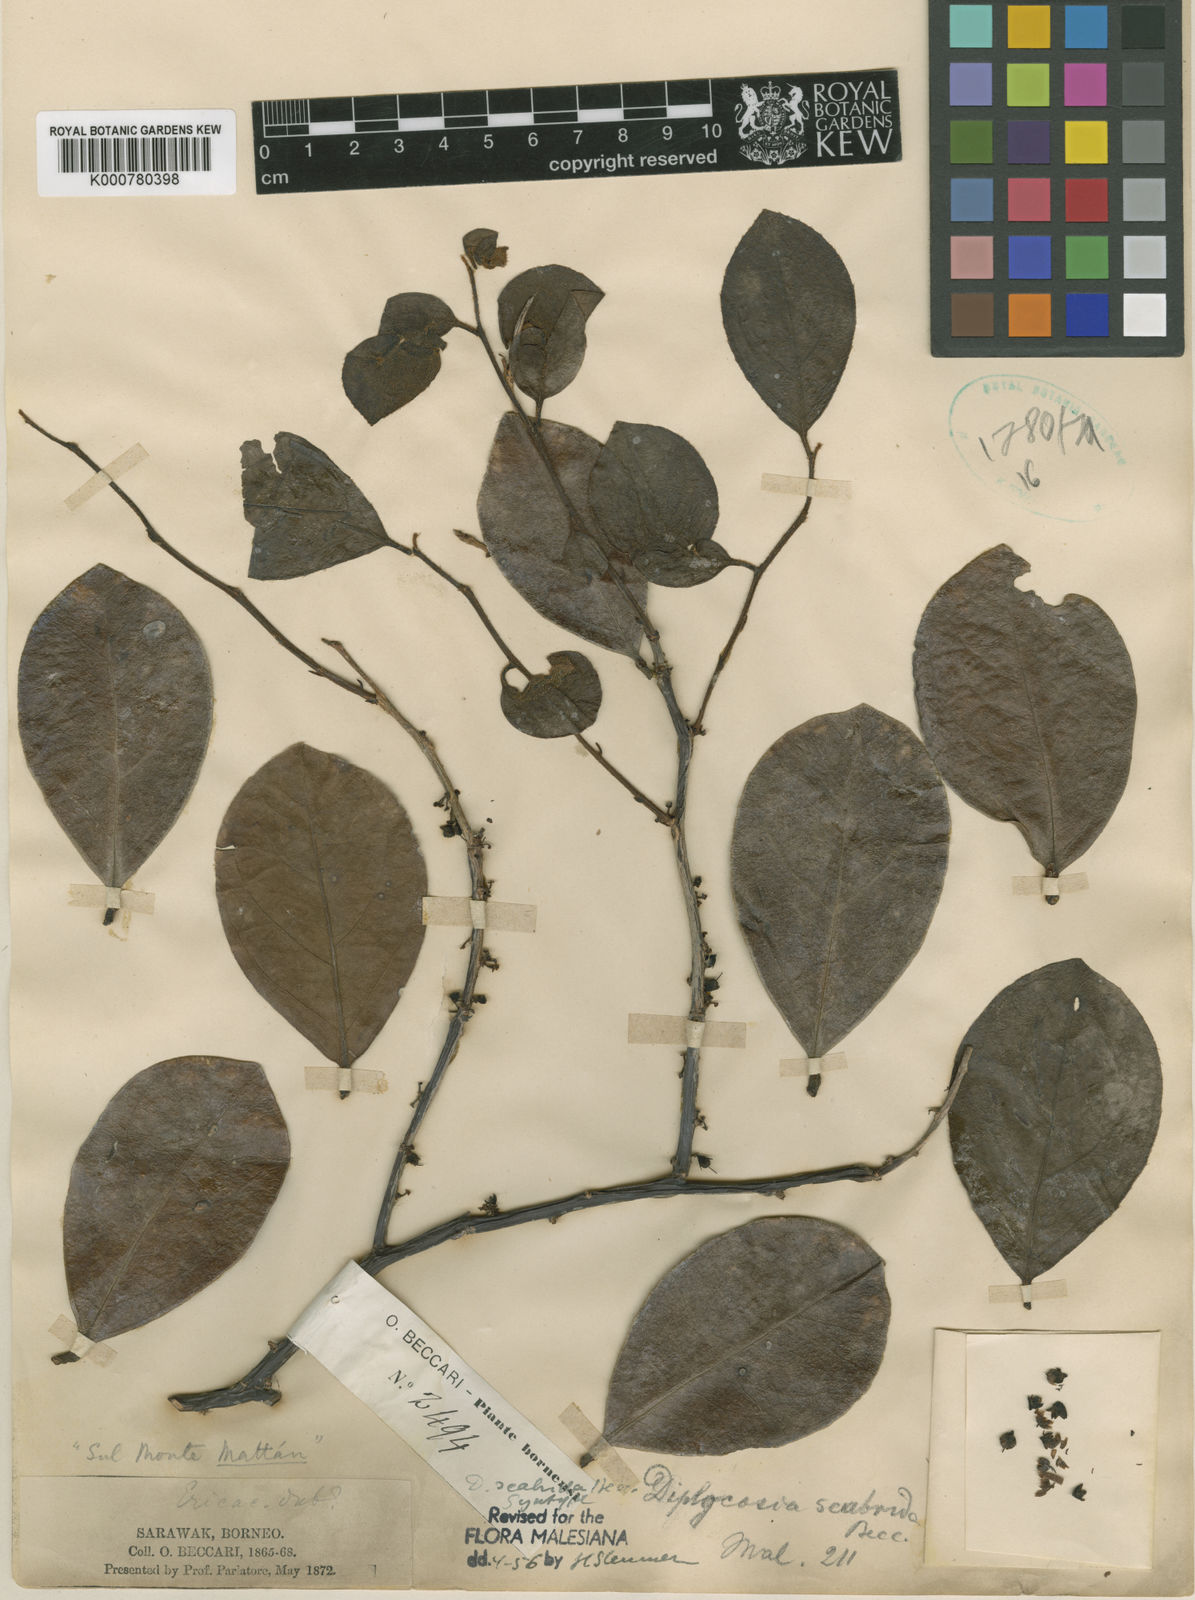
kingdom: Plantae
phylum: Tracheophyta
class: Magnoliopsida
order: Ericales
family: Ericaceae
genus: Gaultheria
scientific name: Gaultheria scabrida
